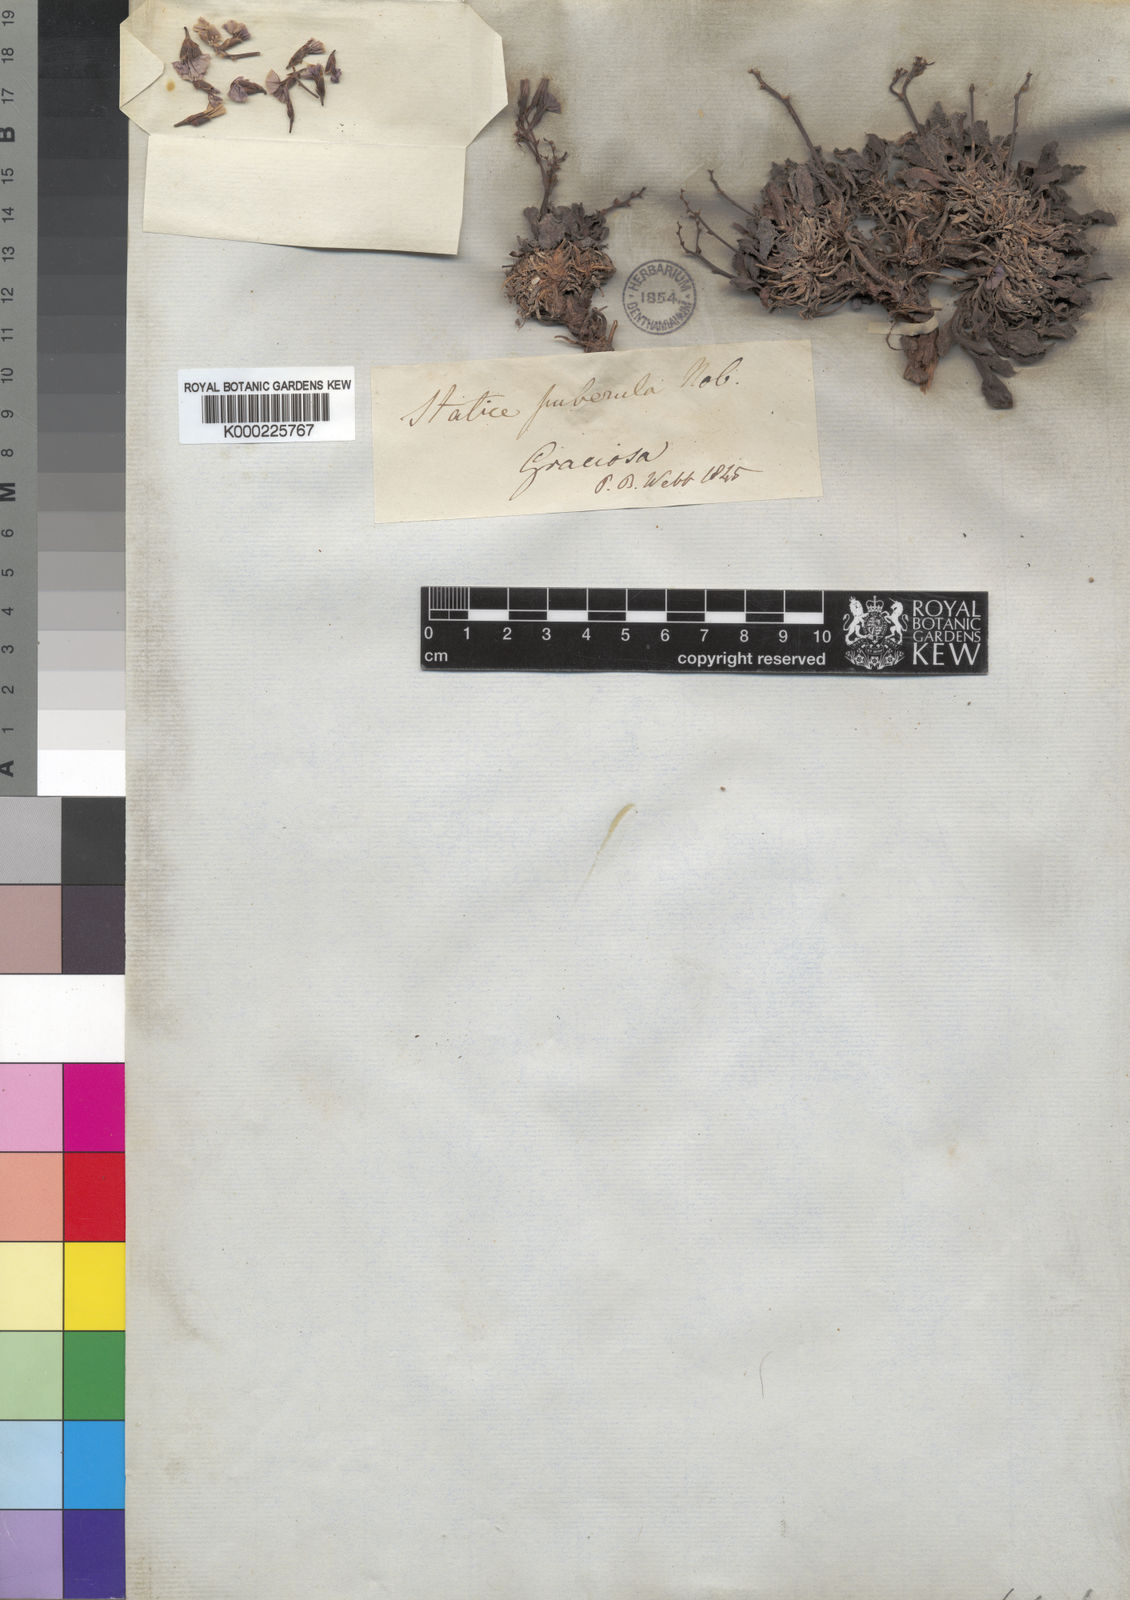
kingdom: Plantae
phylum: Tracheophyta
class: Magnoliopsida
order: Caryophyllales
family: Plumbaginaceae
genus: Limonium
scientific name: Limonium puberulum
